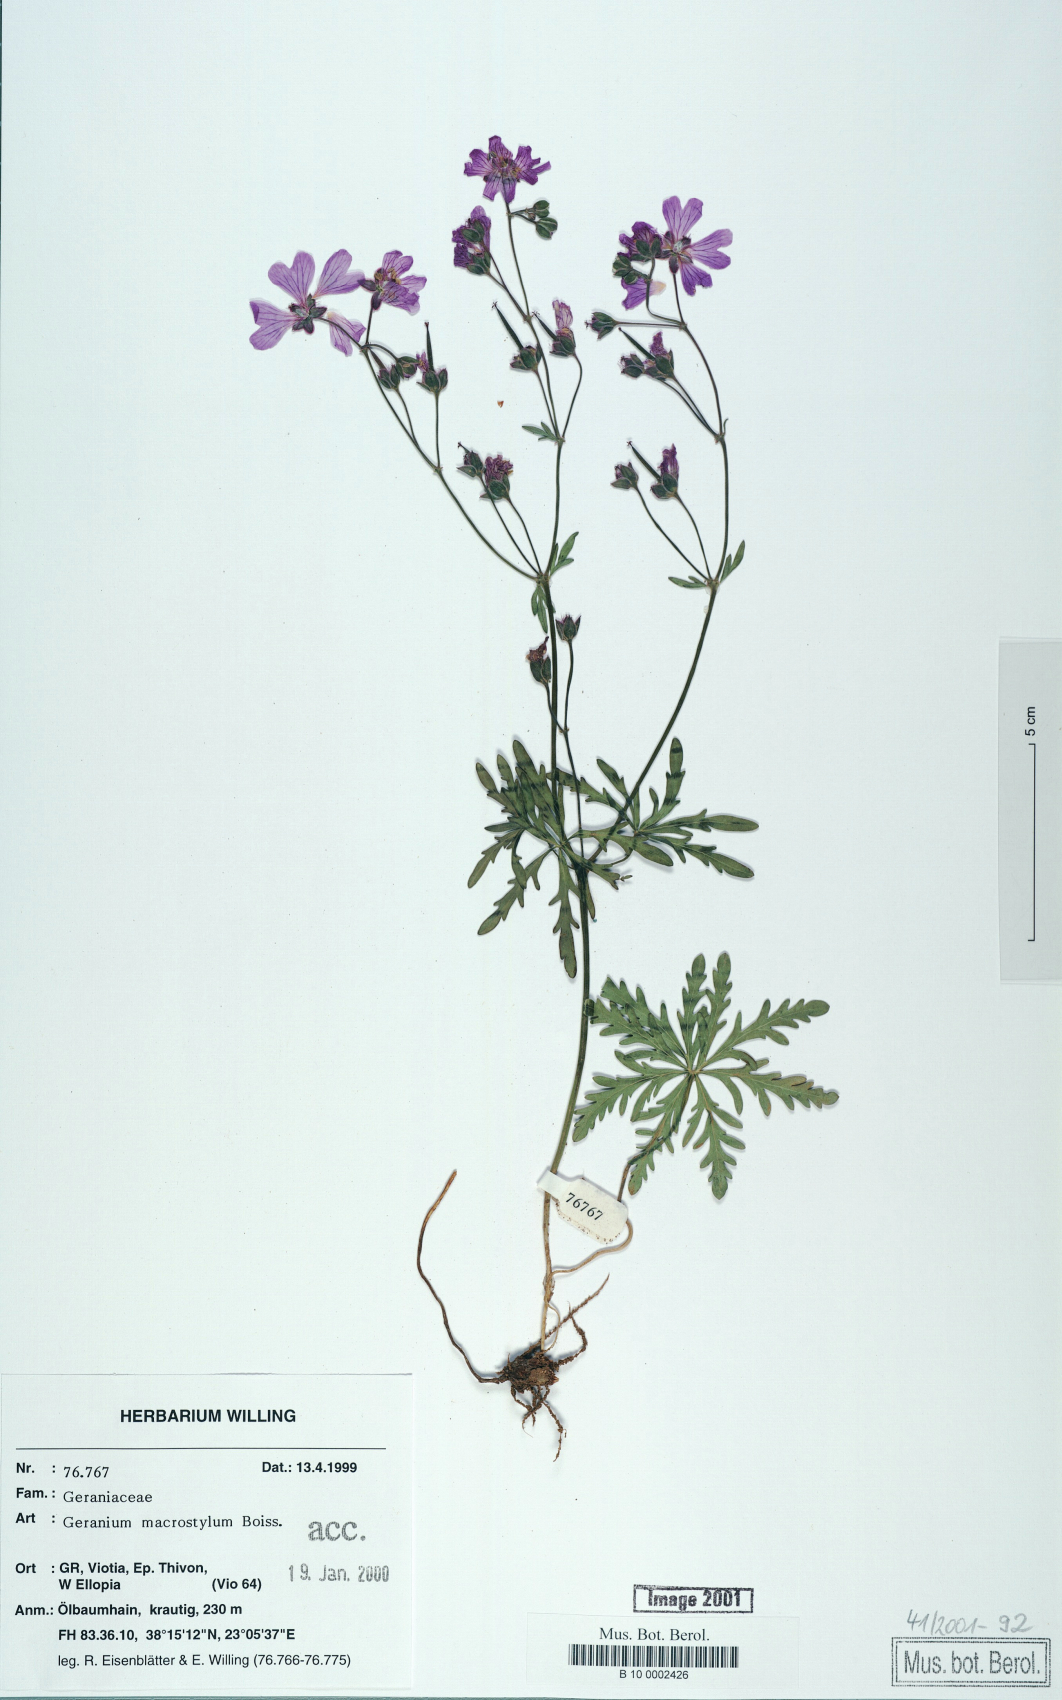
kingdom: Plantae
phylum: Tracheophyta
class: Magnoliopsida
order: Geraniales
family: Geraniaceae
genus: Geranium
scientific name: Geranium macrostylum
